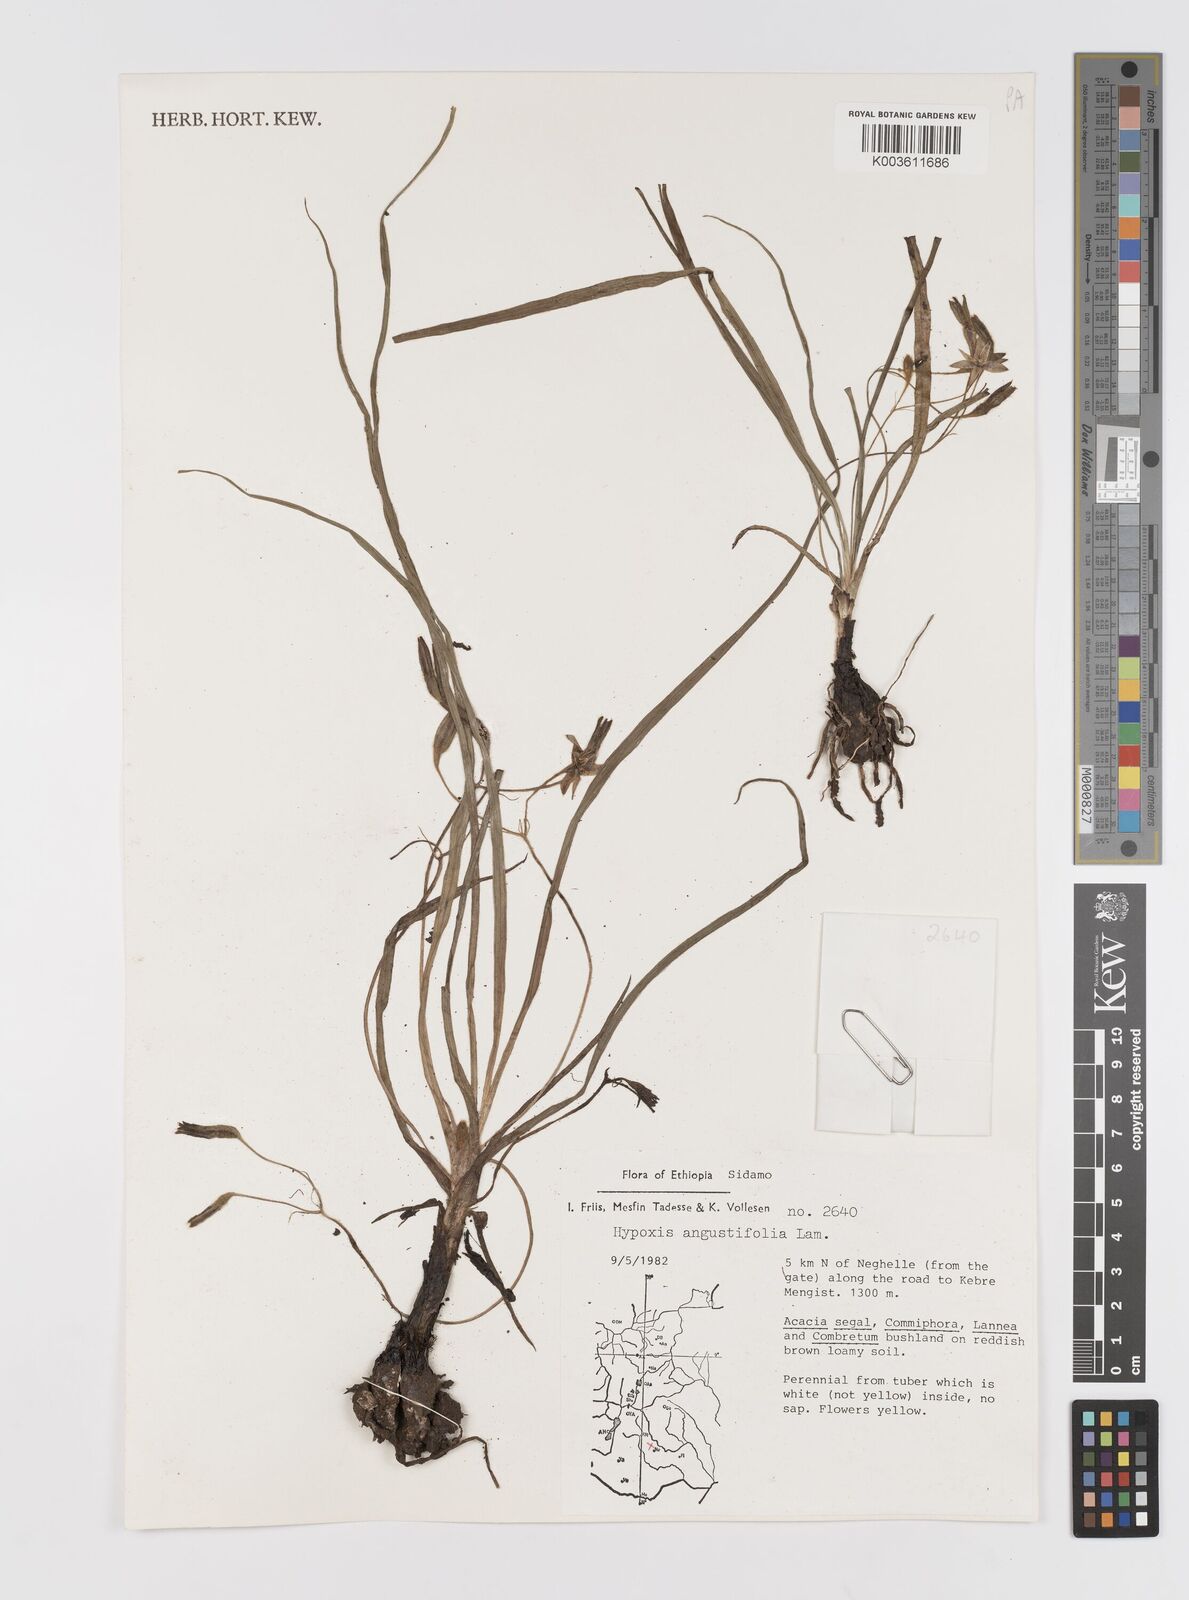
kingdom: Plantae
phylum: Tracheophyta
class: Liliopsida
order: Asparagales
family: Hypoxidaceae
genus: Hypoxis
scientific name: Hypoxis angustifolia
